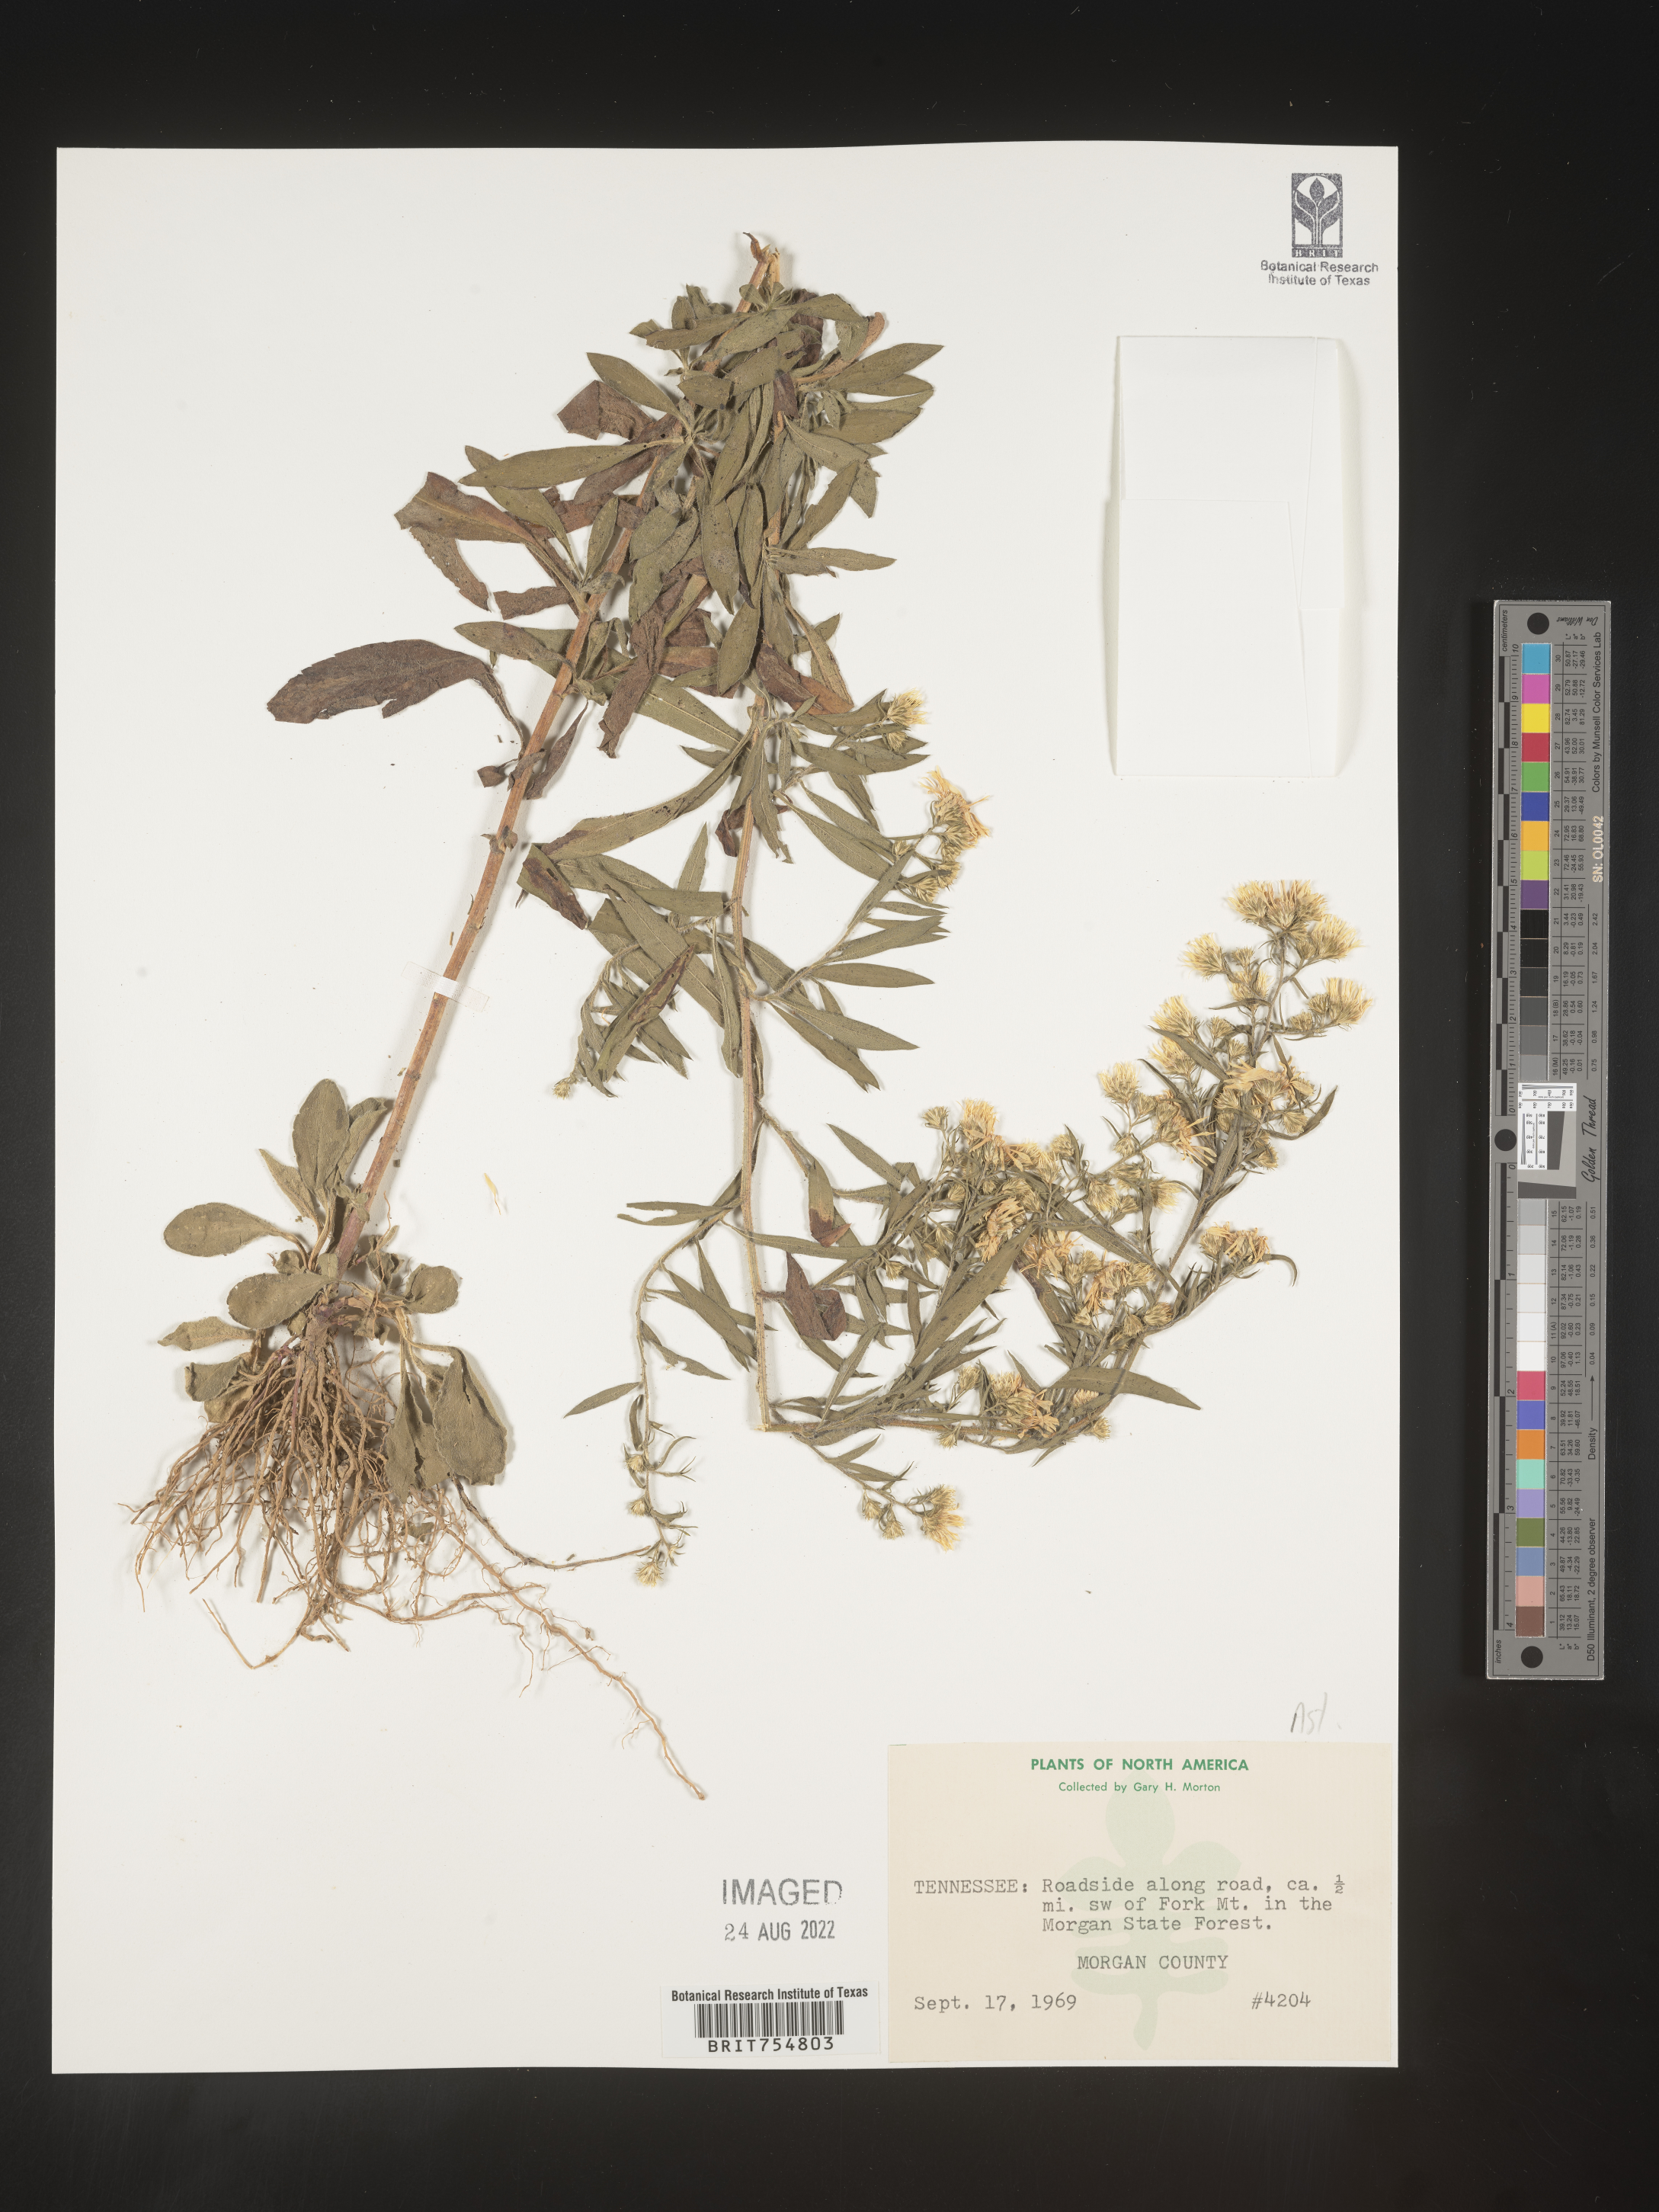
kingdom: Plantae
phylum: Tracheophyta
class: Magnoliopsida
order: Asterales
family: Asteraceae
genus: Symphyotrichum
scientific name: Symphyotrichum
